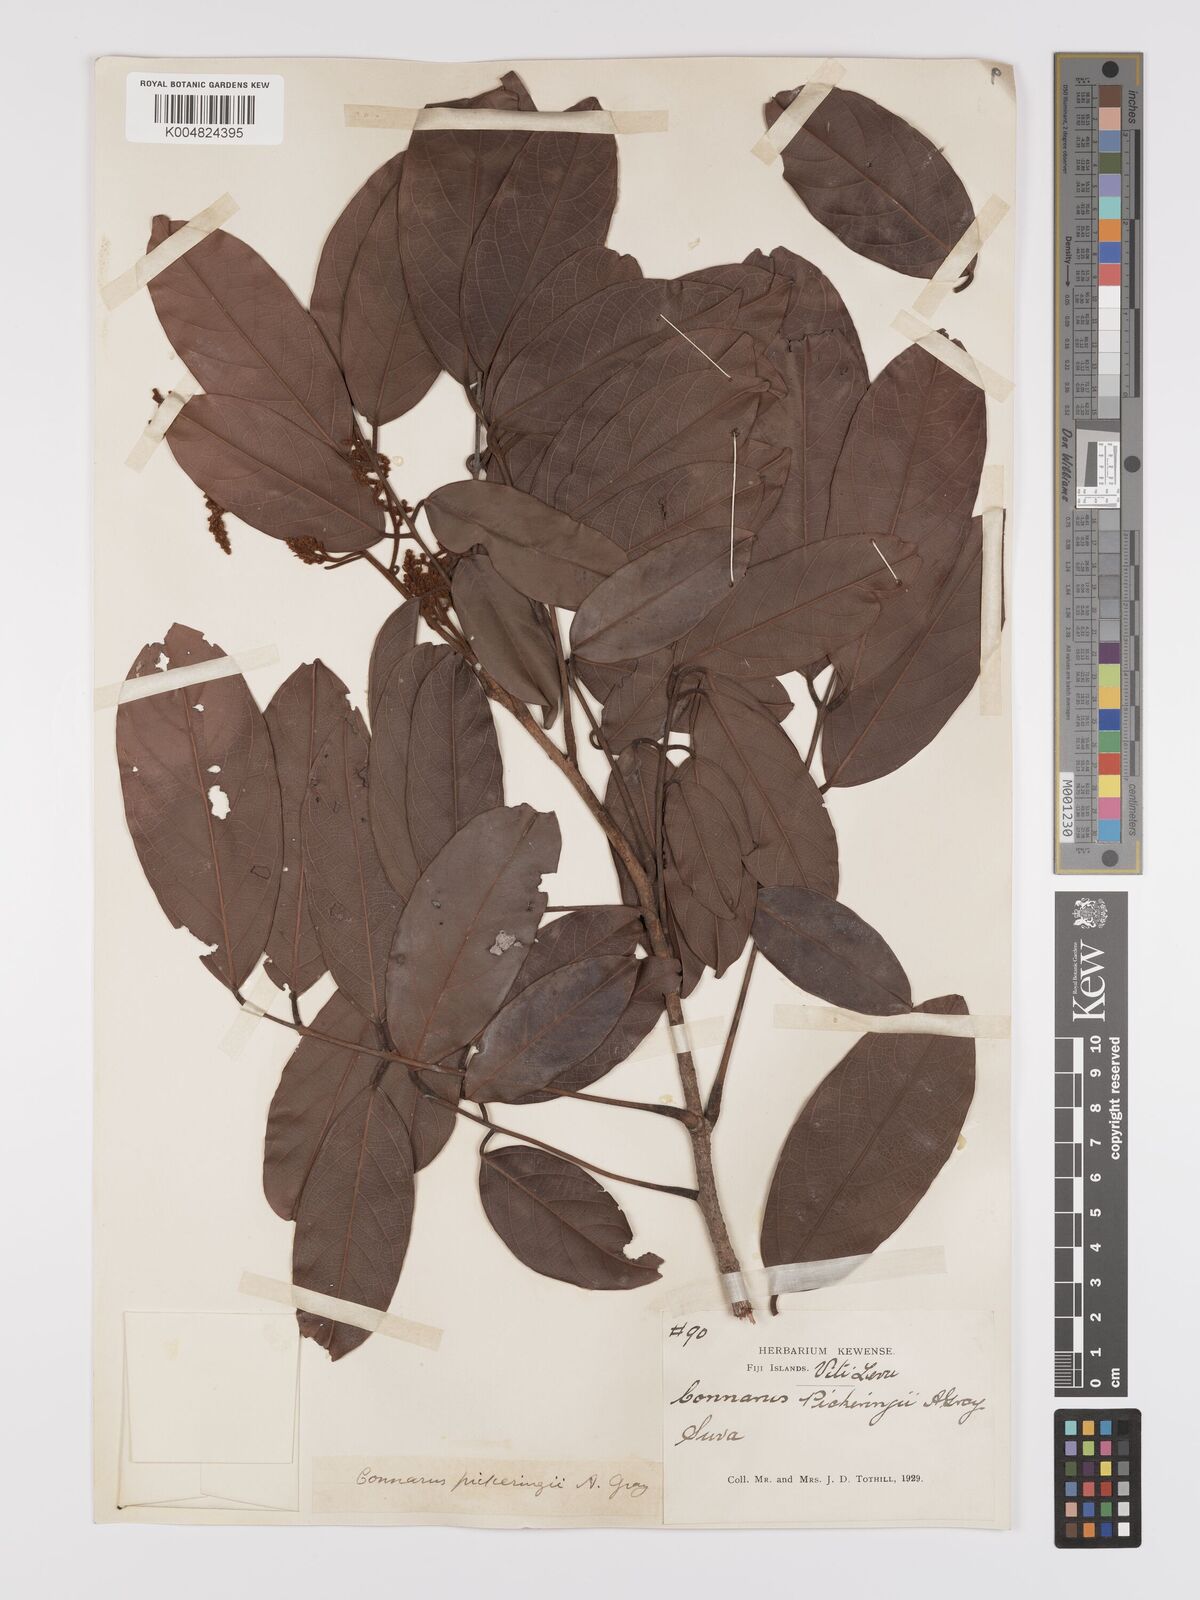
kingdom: Plantae
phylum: Tracheophyta
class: Magnoliopsida
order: Oxalidales
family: Connaraceae
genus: Connarus
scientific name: Connarus pickeringii
